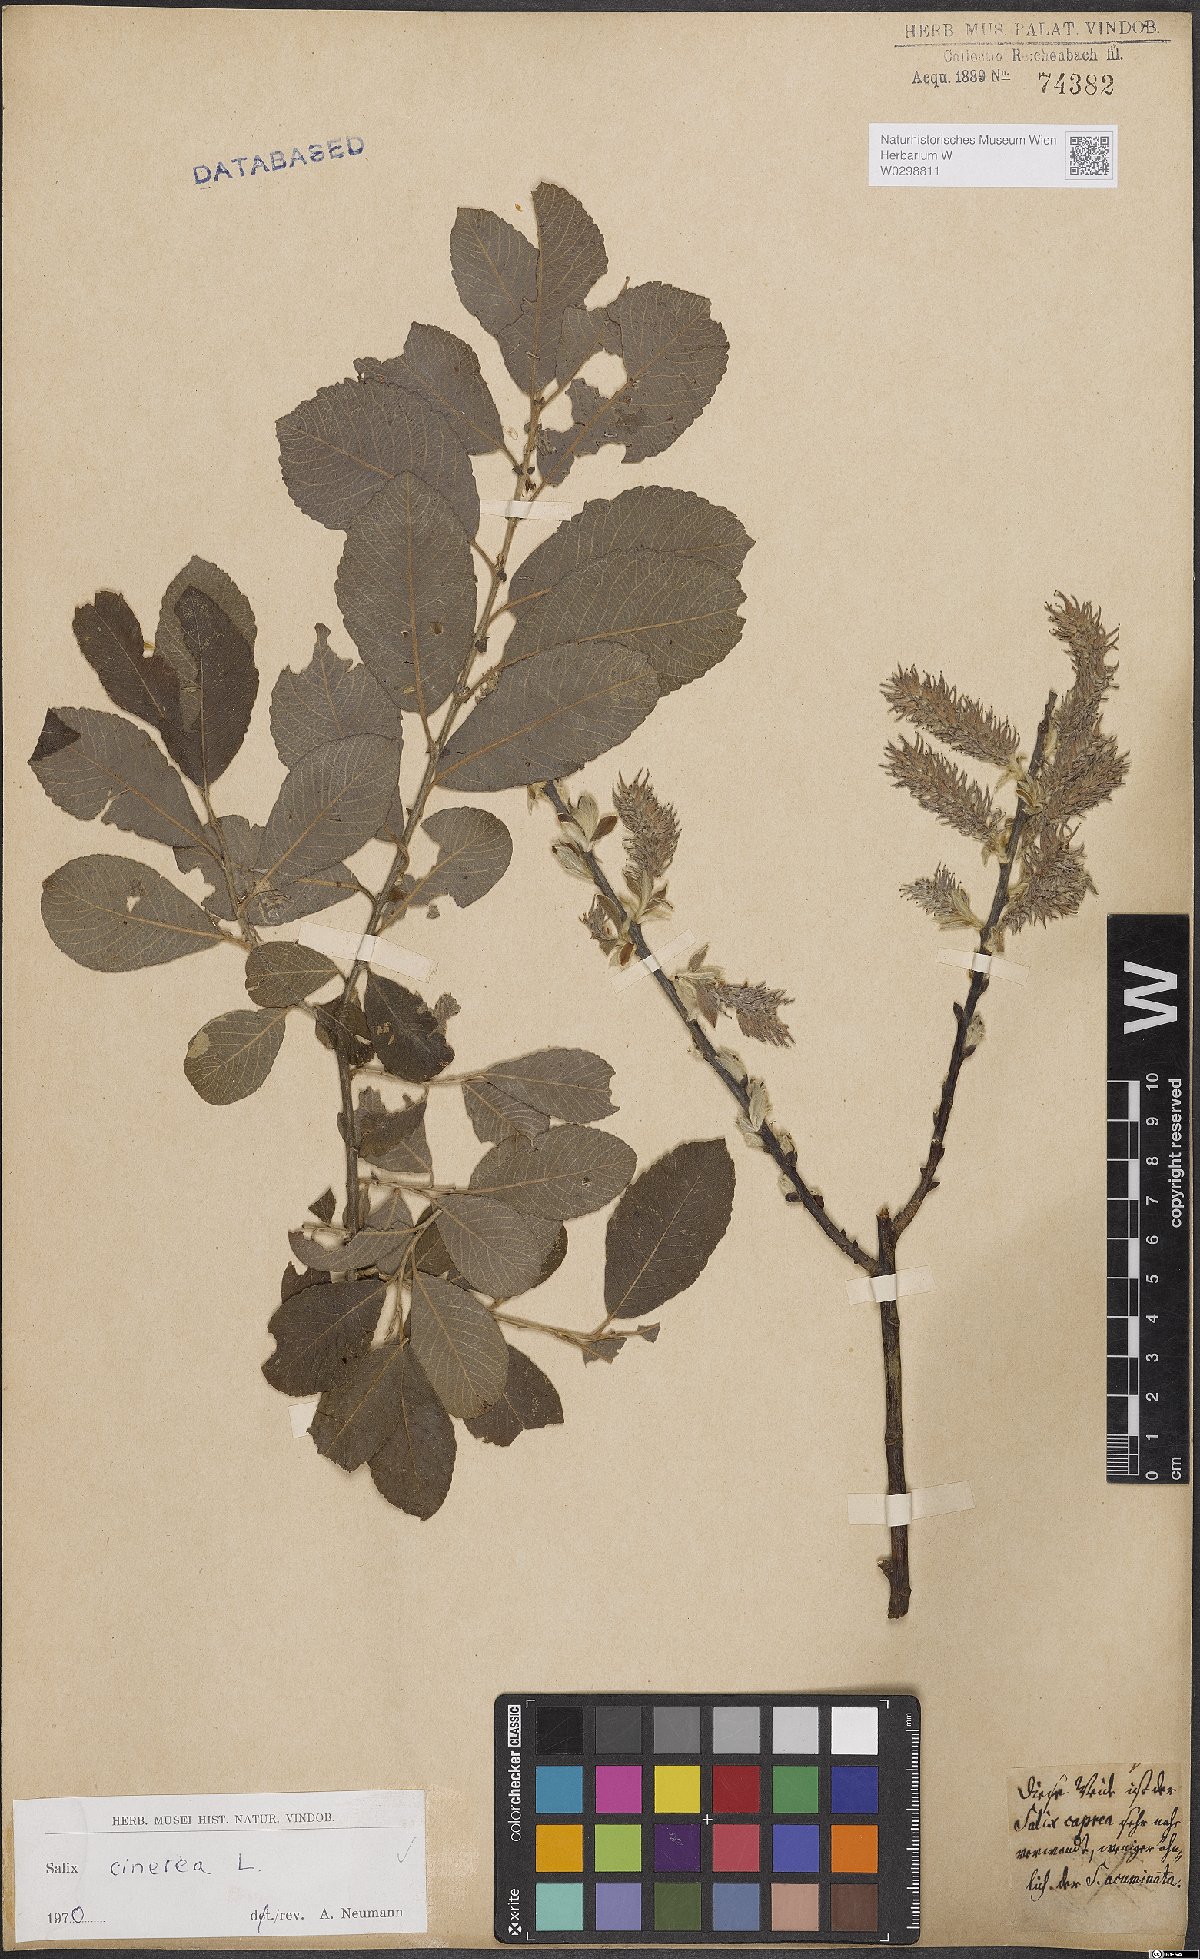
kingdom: Plantae
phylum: Tracheophyta
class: Magnoliopsida
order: Malpighiales
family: Salicaceae
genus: Salix
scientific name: Salix cinerea
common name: Common sallow
